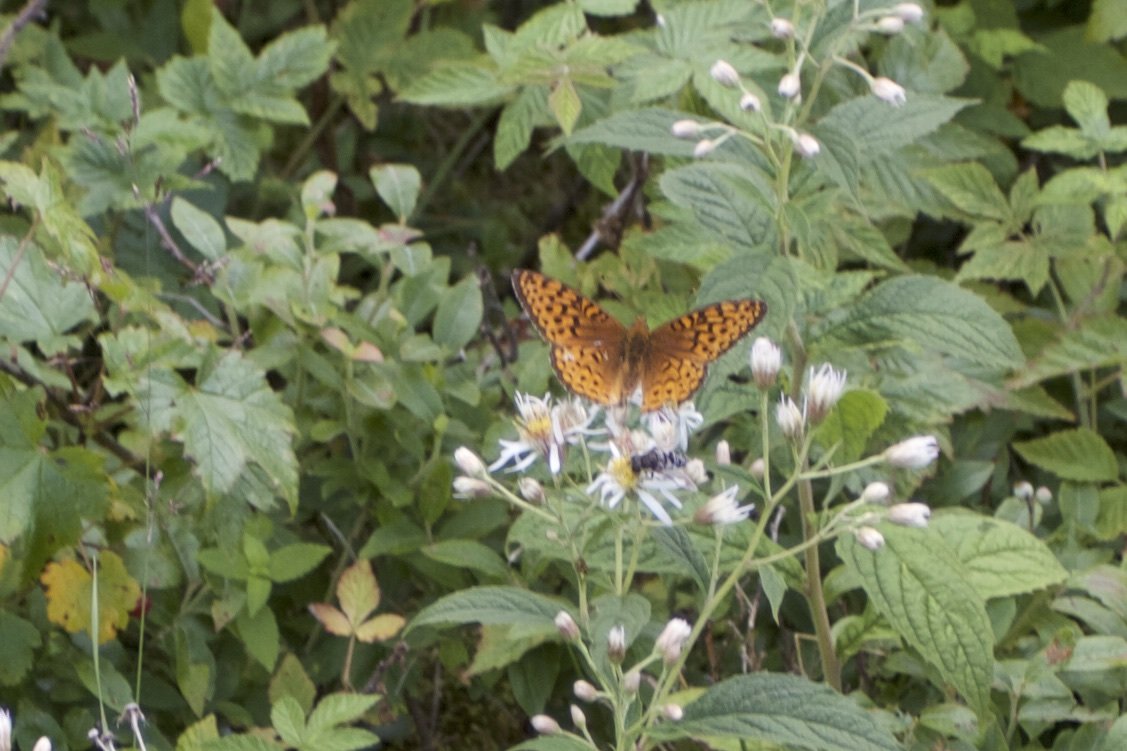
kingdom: Animalia
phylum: Arthropoda
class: Insecta
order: Lepidoptera
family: Nymphalidae
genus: Speyeria
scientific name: Speyeria atlantis
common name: Atlantis Fritillary
